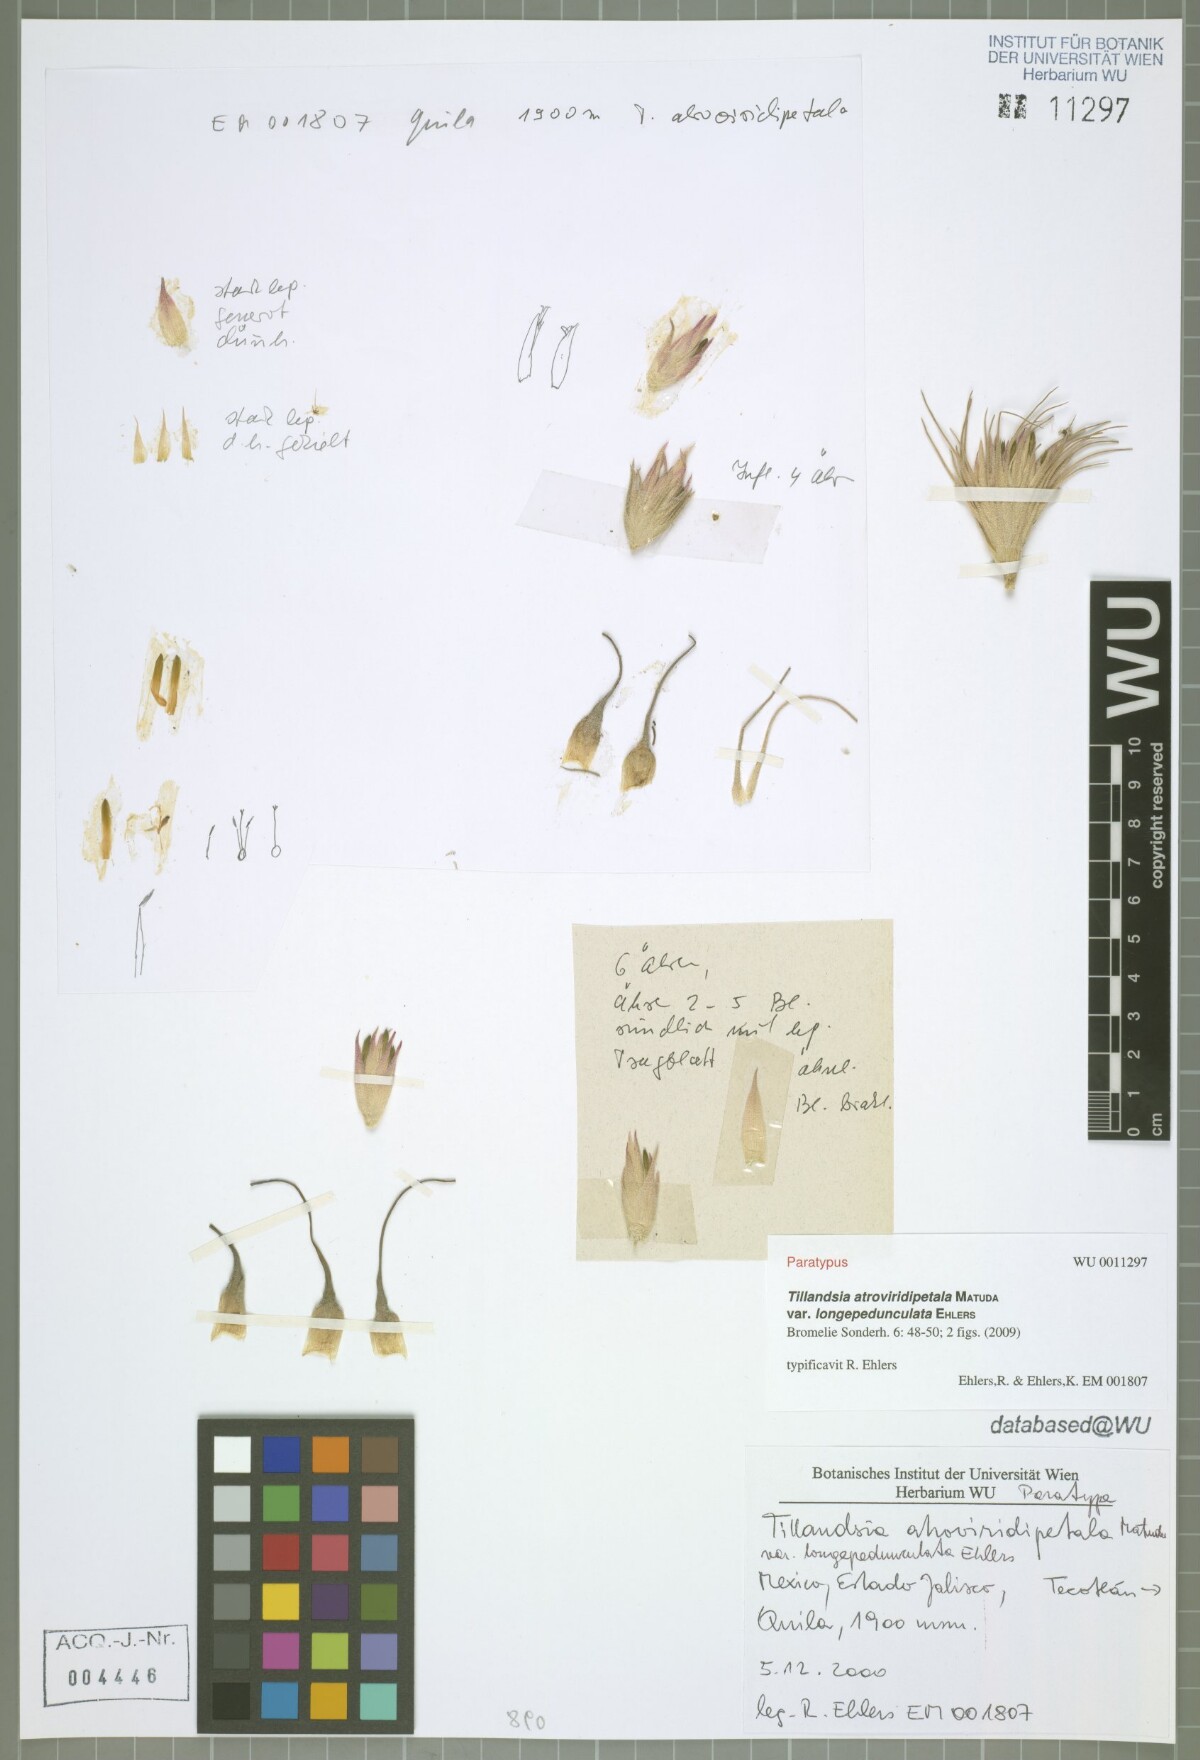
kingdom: Plantae
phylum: Tracheophyta
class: Liliopsida
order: Poales
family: Bromeliaceae
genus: Tillandsia
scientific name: Tillandsia atroviridipetala
